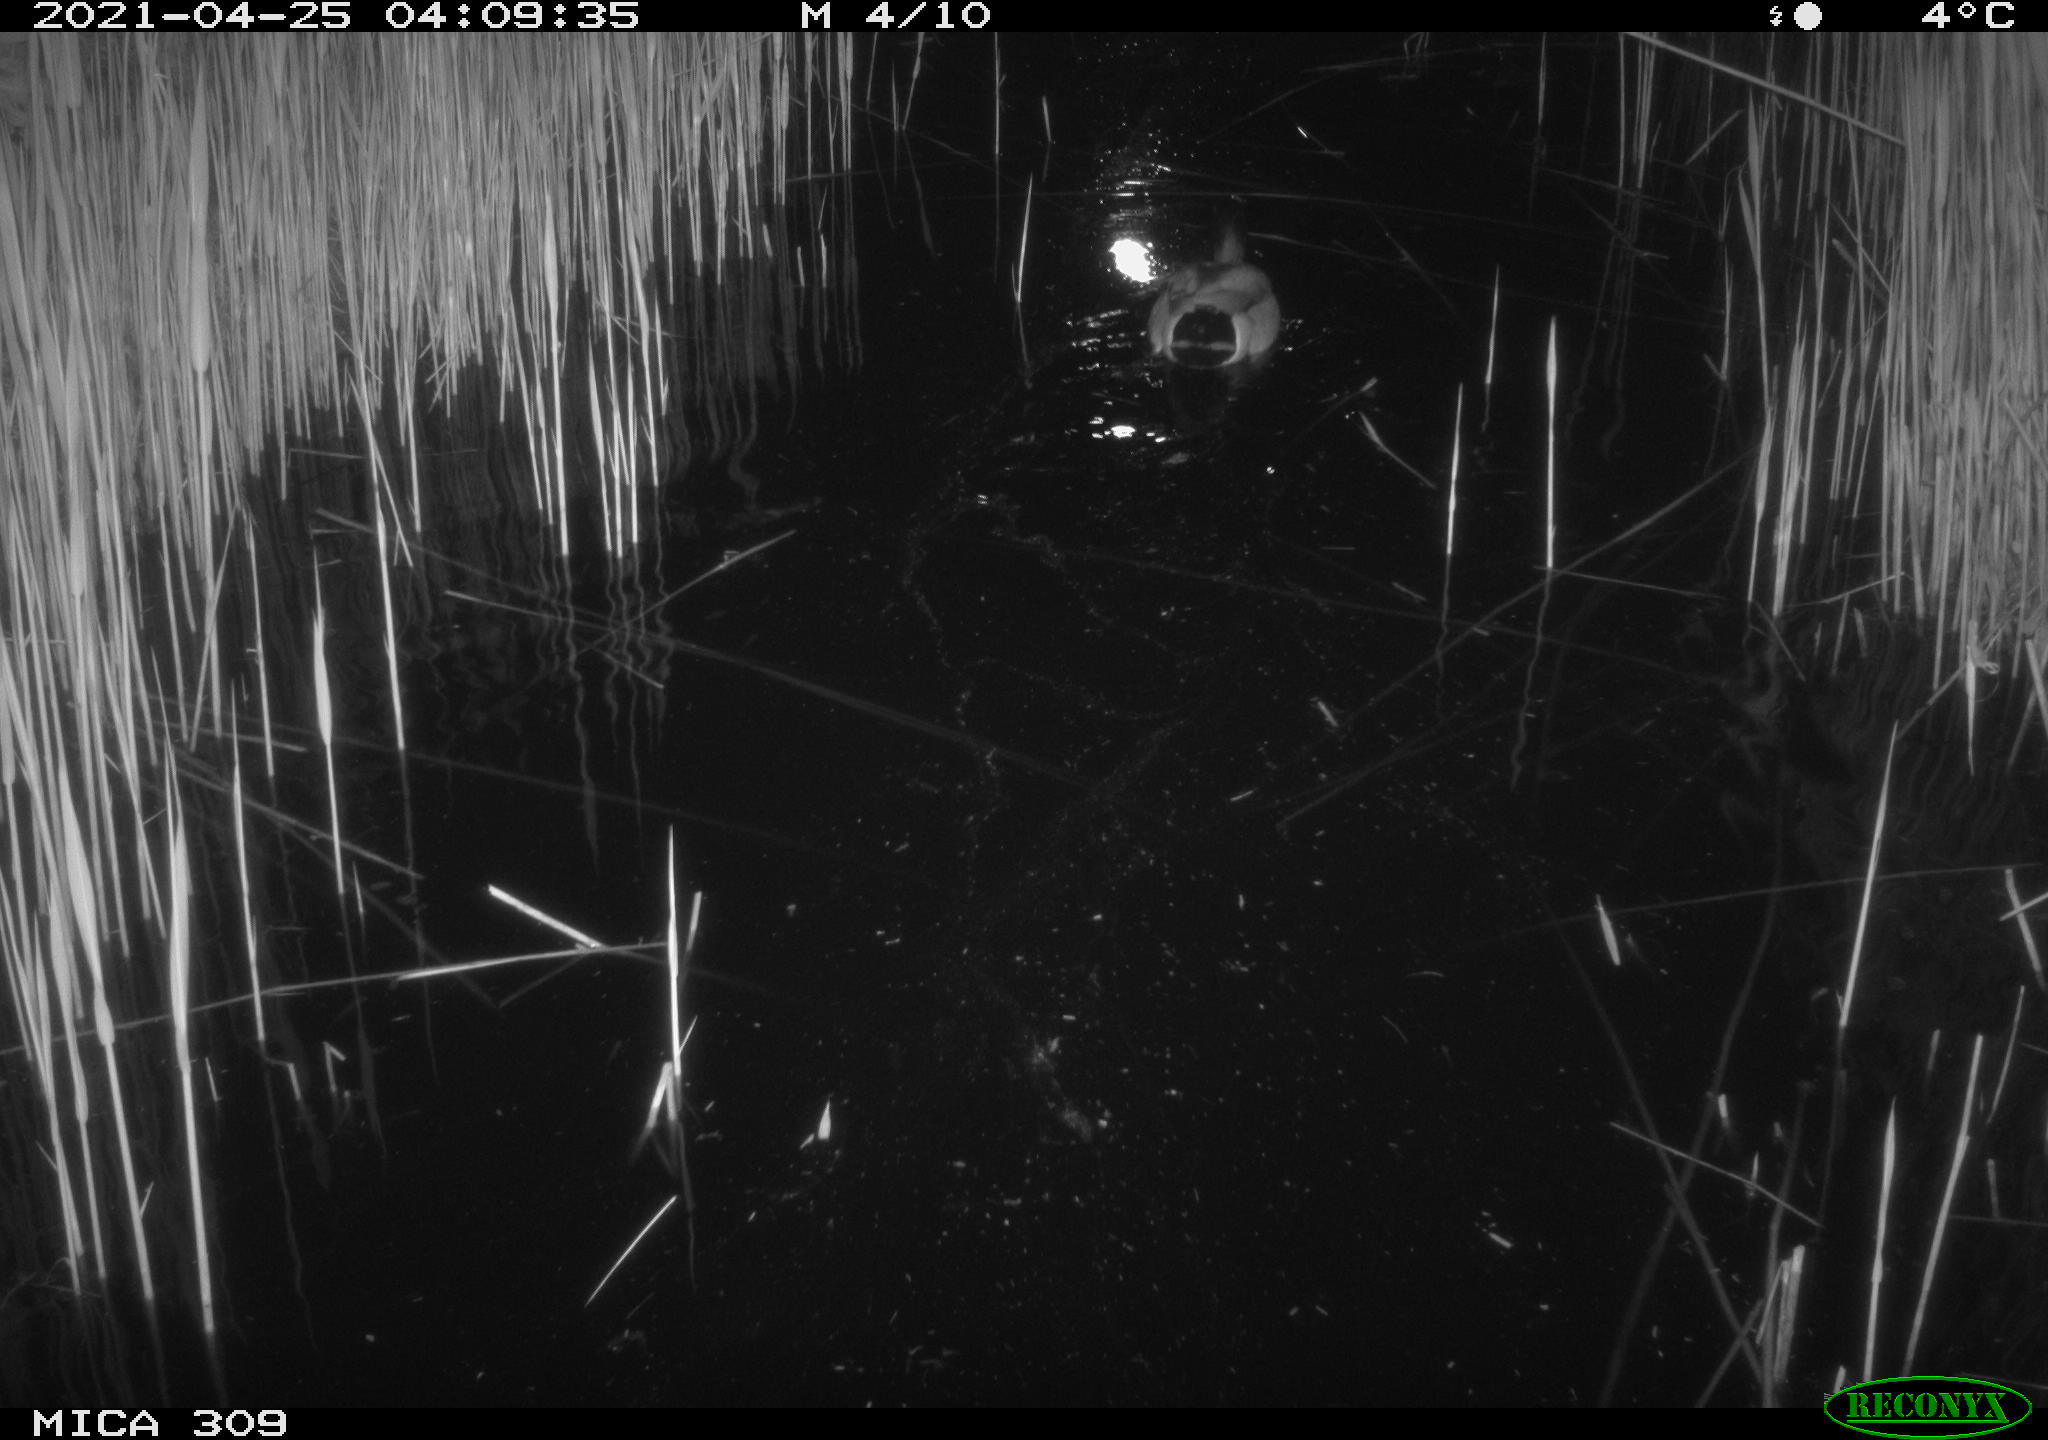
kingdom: Animalia
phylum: Chordata
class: Aves
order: Anseriformes
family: Anatidae
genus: Anas
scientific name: Anas platyrhynchos
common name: Mallard
